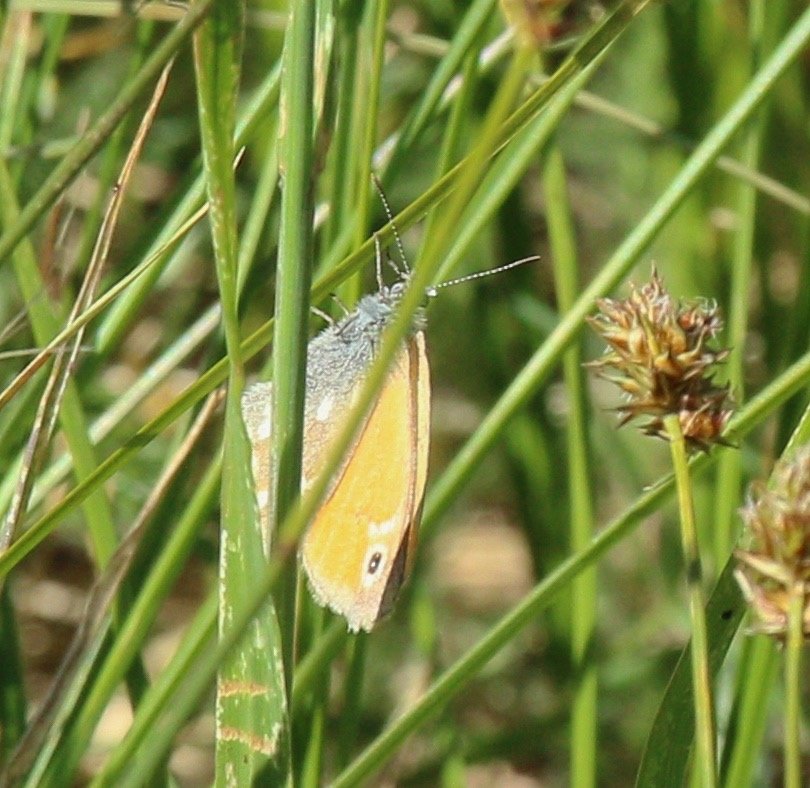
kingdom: Animalia
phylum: Arthropoda
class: Insecta
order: Lepidoptera
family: Nymphalidae
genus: Coenonympha
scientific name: Coenonympha tullia
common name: Large Heath
